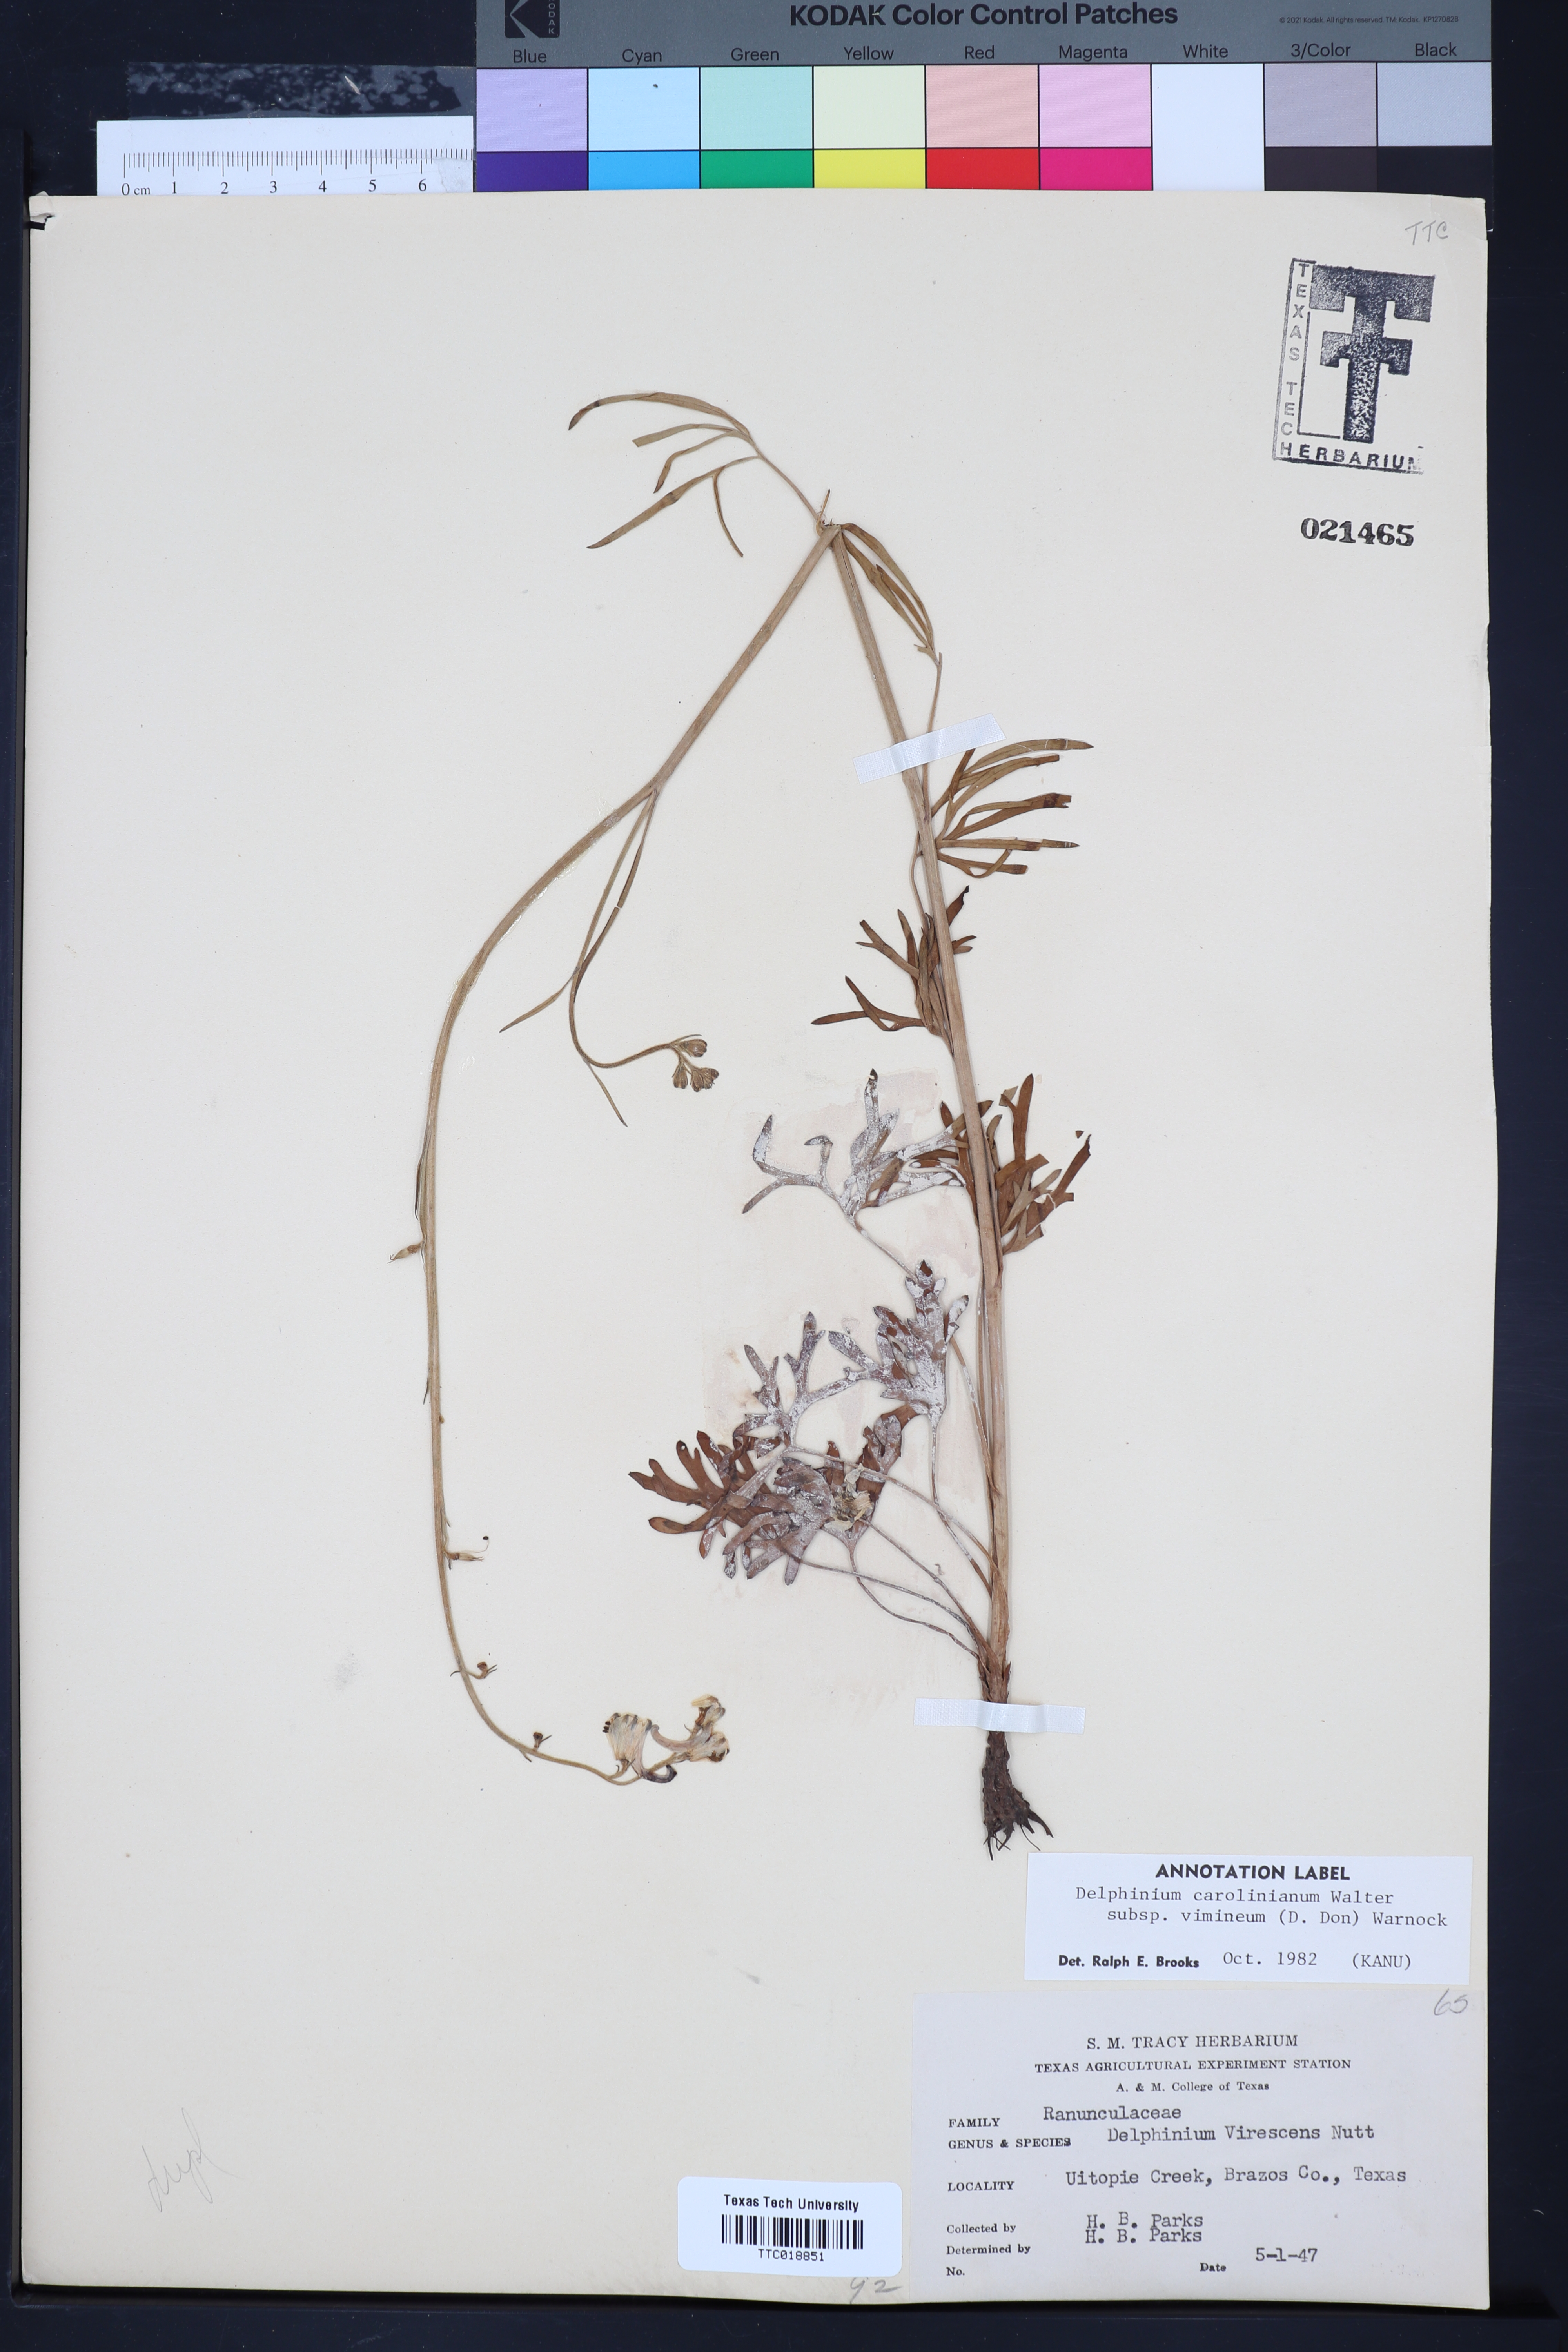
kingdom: Plantae
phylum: Tracheophyta
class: Magnoliopsida
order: Ranunculales
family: Ranunculaceae
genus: Delphinium
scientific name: Delphinium carolinianum
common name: Carolina larkspur
